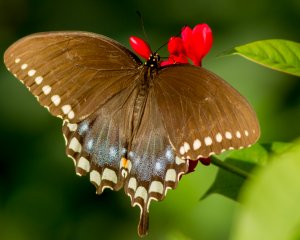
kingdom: Animalia
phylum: Arthropoda
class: Insecta
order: Lepidoptera
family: Papilionidae
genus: Pterourus
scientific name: Pterourus troilus
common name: Spicebush Swallowtail
